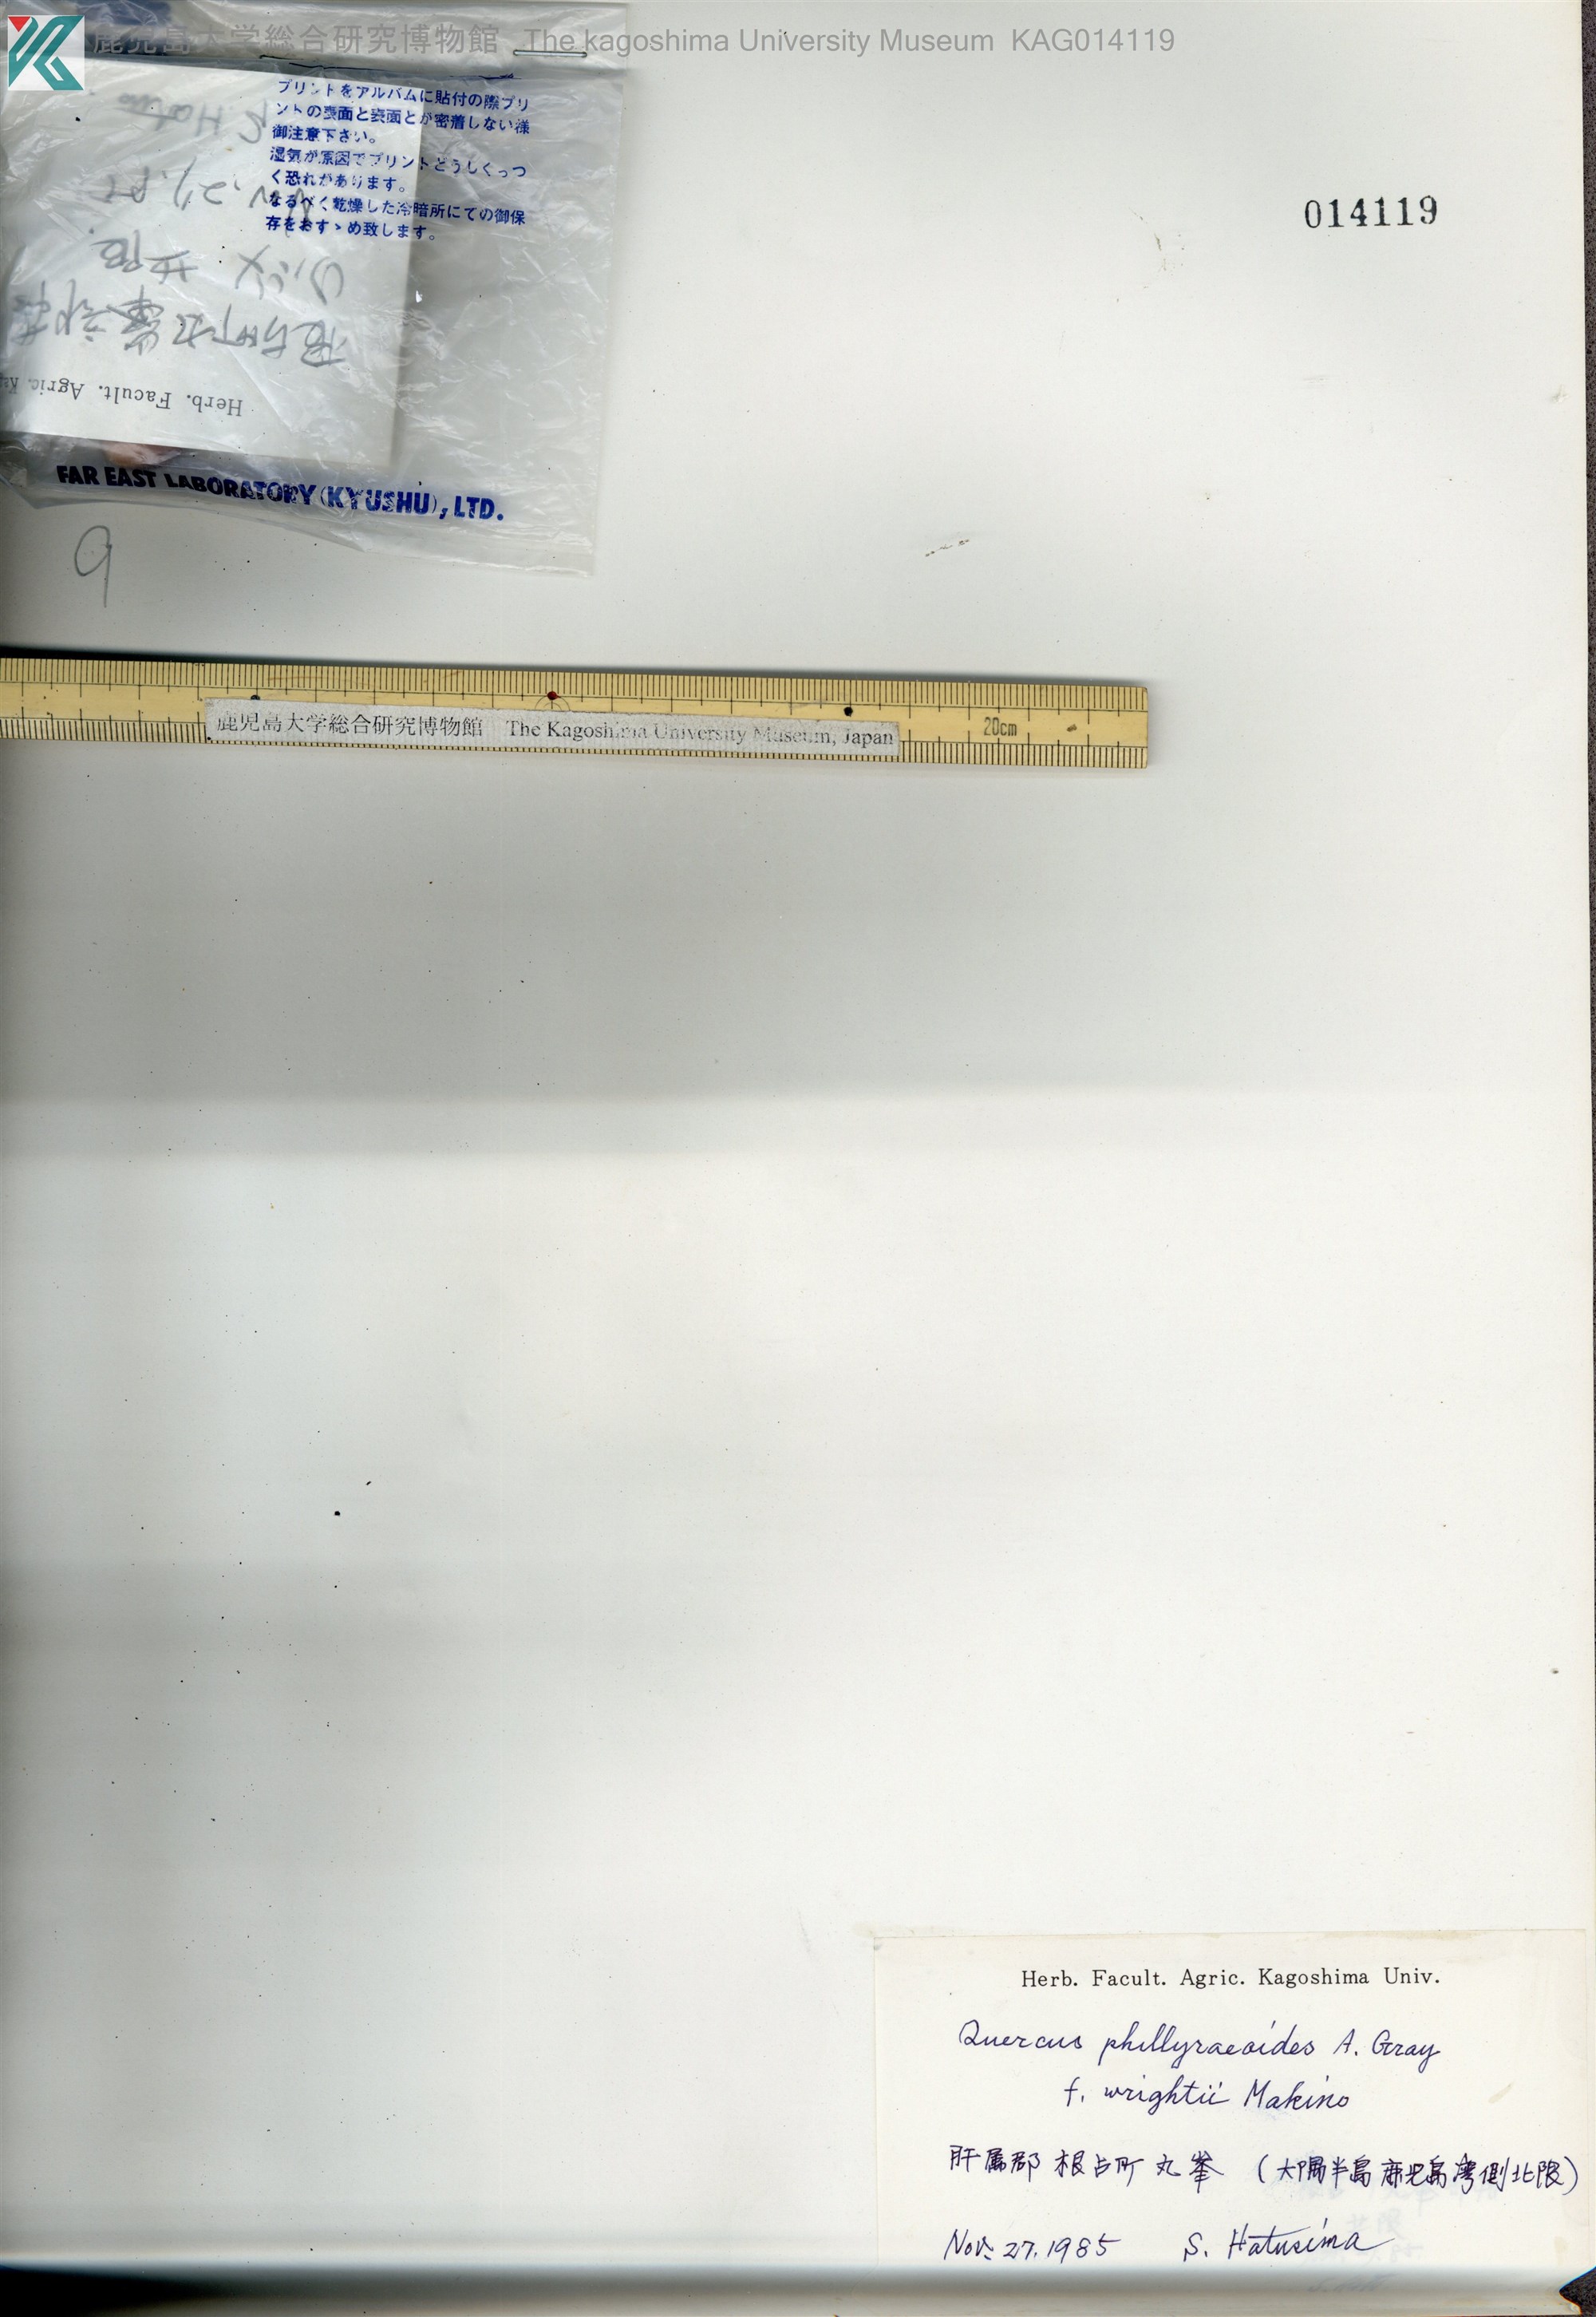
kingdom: Plantae
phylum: Tracheophyta
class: Magnoliopsida
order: Fagales
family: Fagaceae
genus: Quercus
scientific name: Quercus phillyreoides
